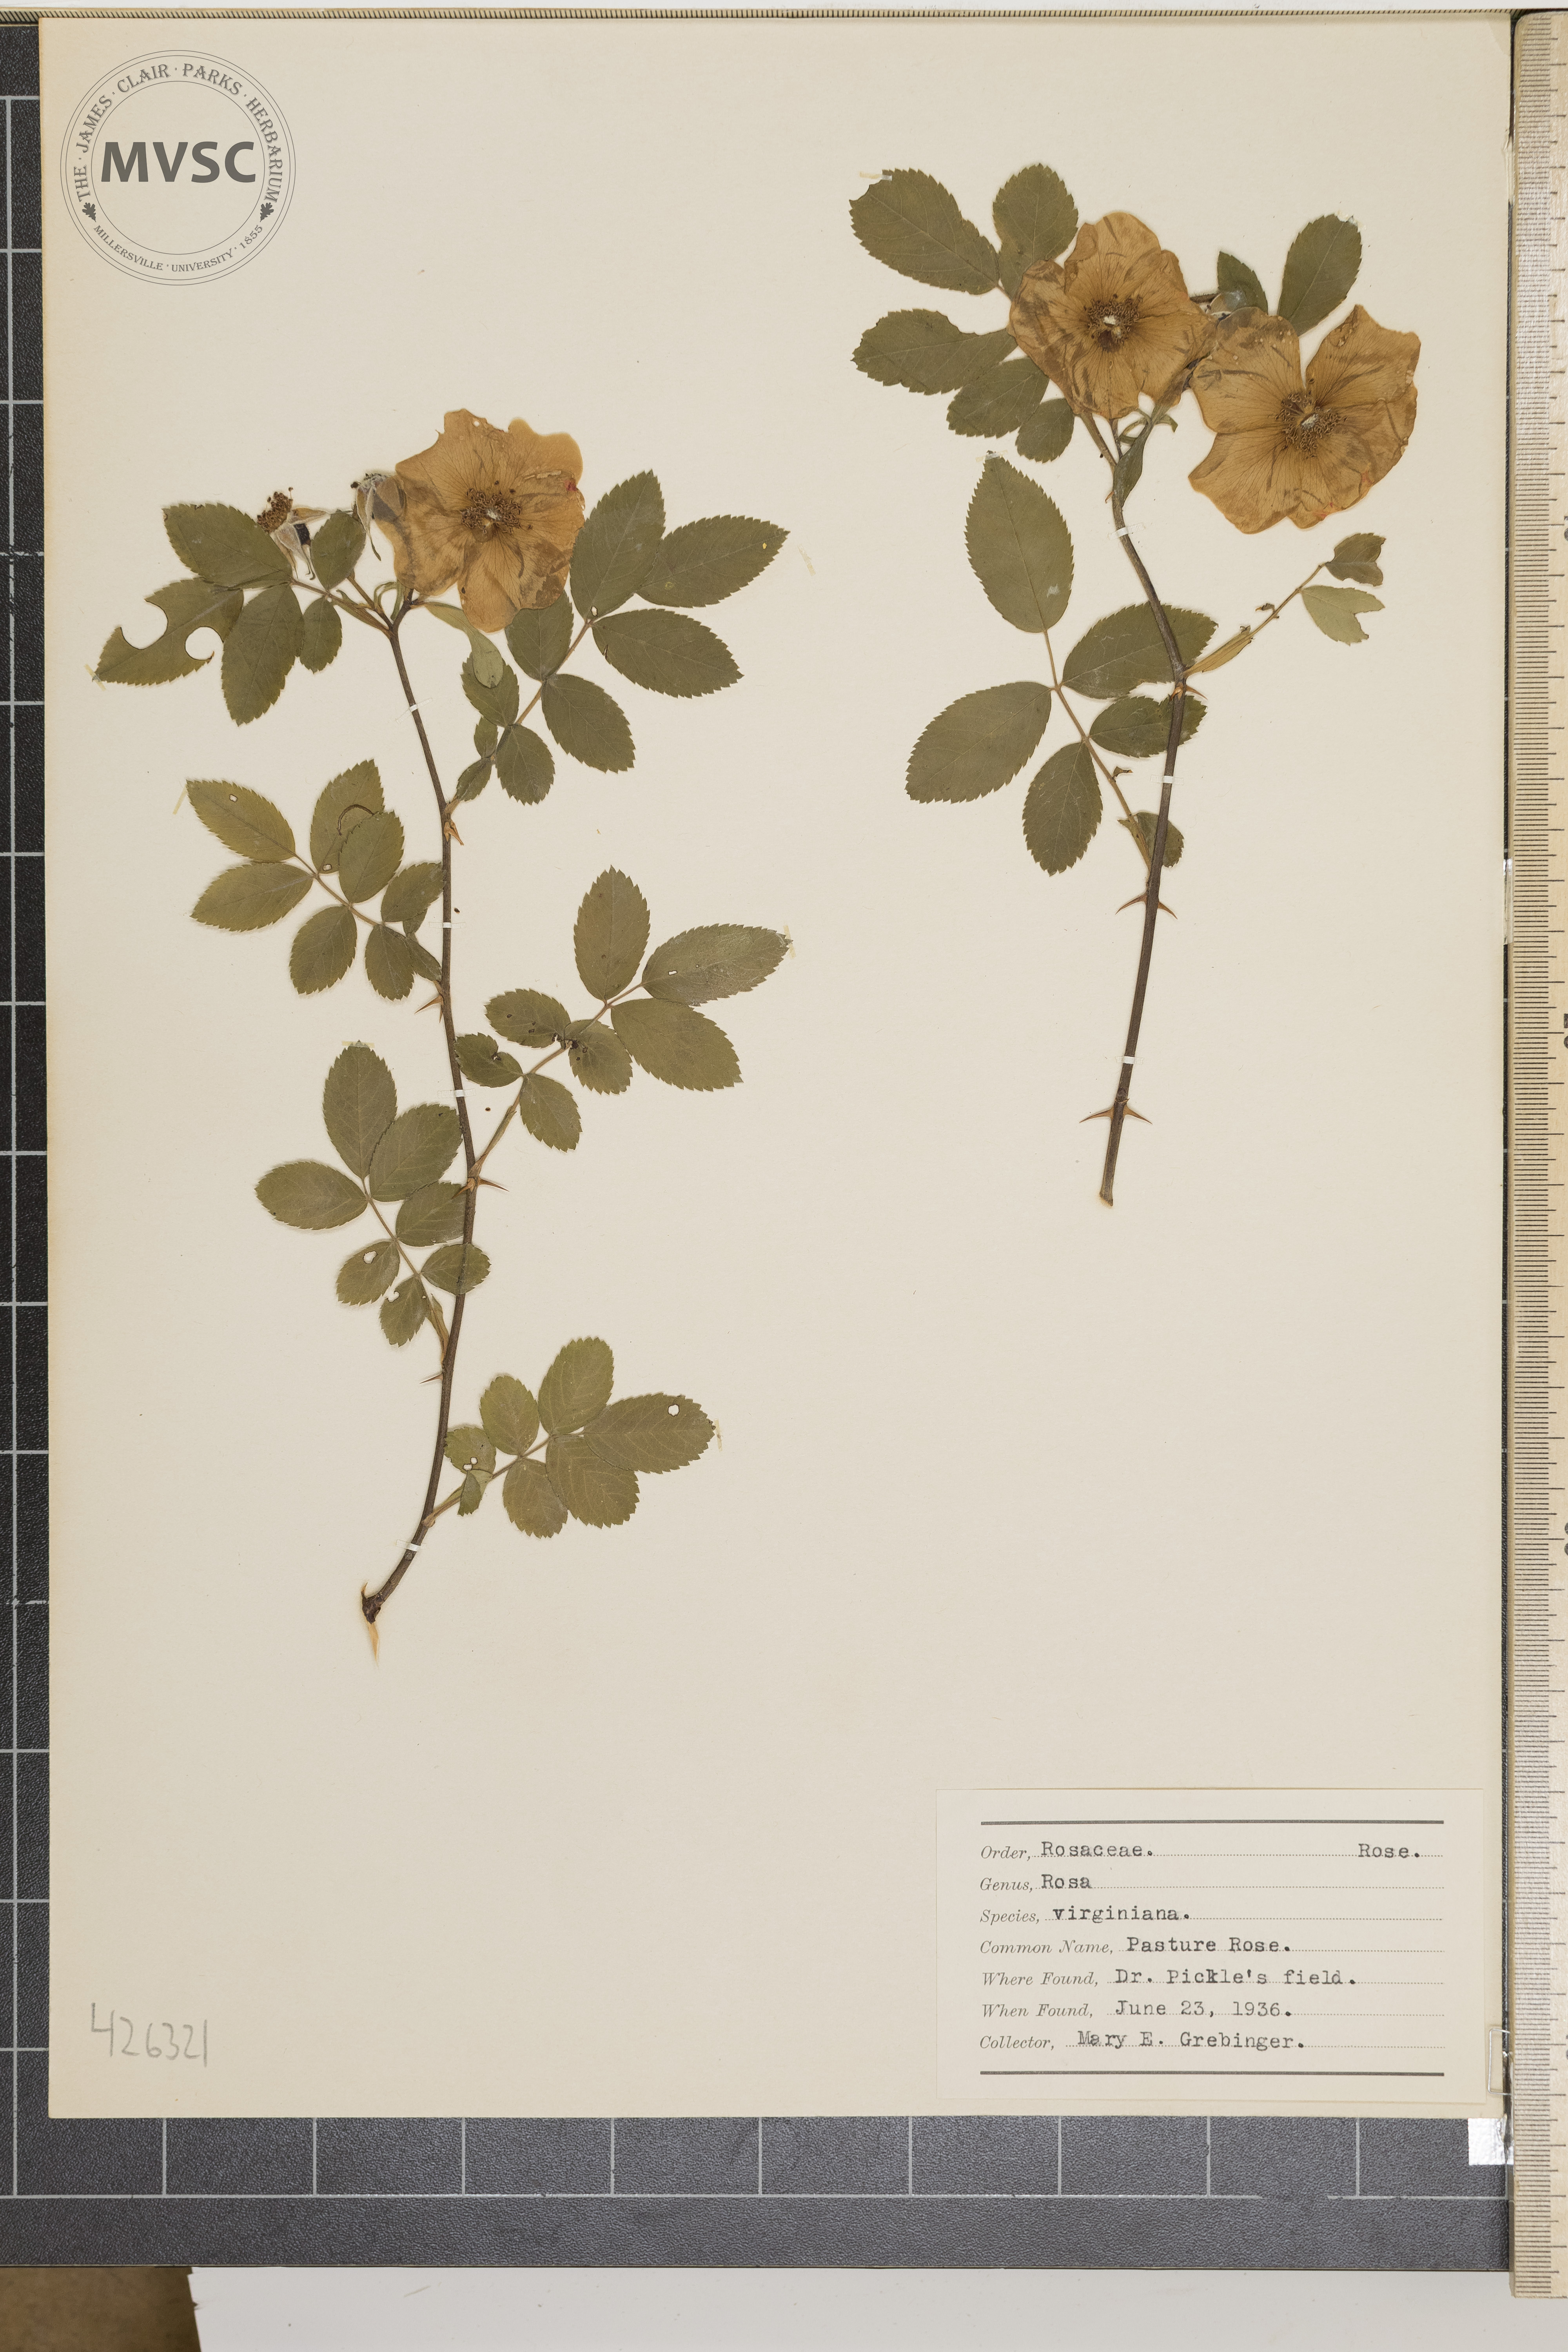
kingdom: Plantae
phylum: Tracheophyta
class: Magnoliopsida
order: Rosales
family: Rosaceae
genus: Rosa
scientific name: Rosa virginiana
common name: Pasture rose
